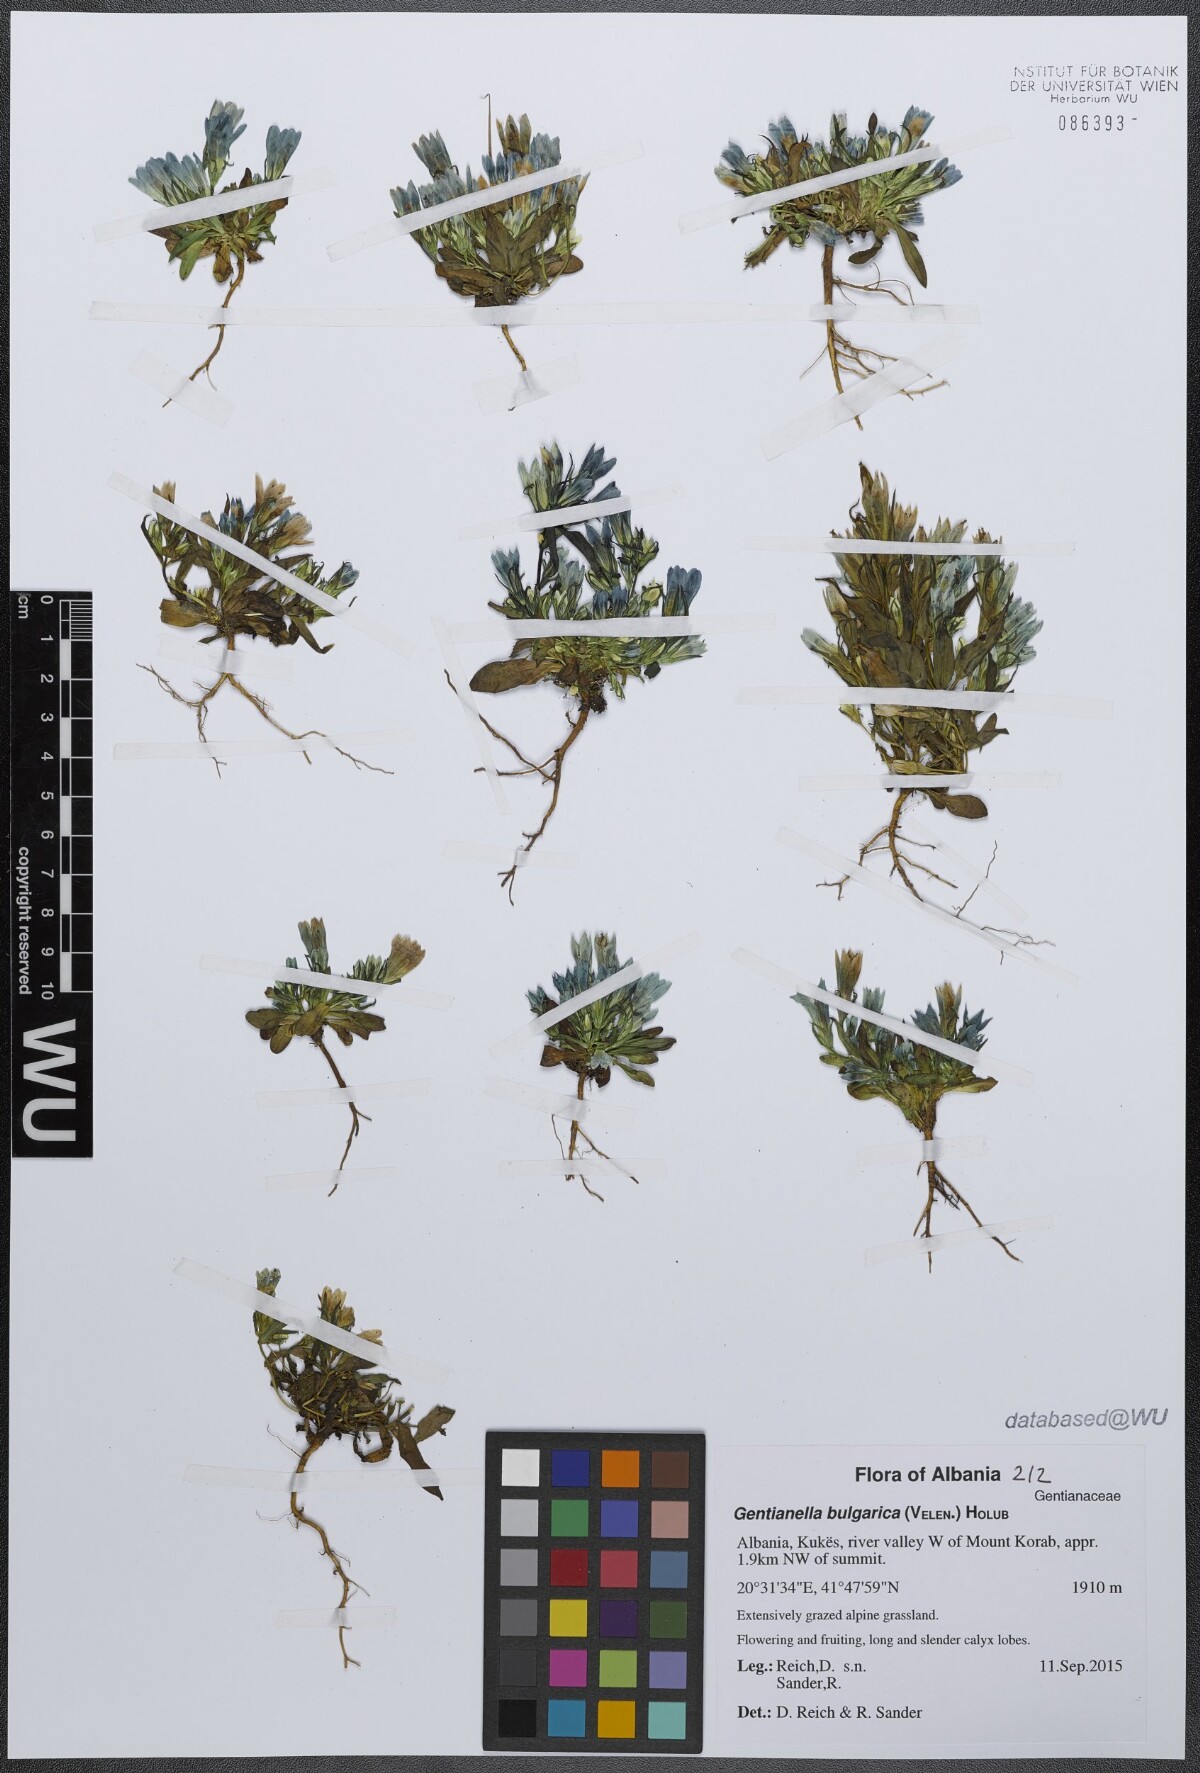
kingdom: Plantae
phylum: Tracheophyta
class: Magnoliopsida
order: Gentianales
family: Gentianaceae
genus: Gentianella
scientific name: Gentianella bulgarica
